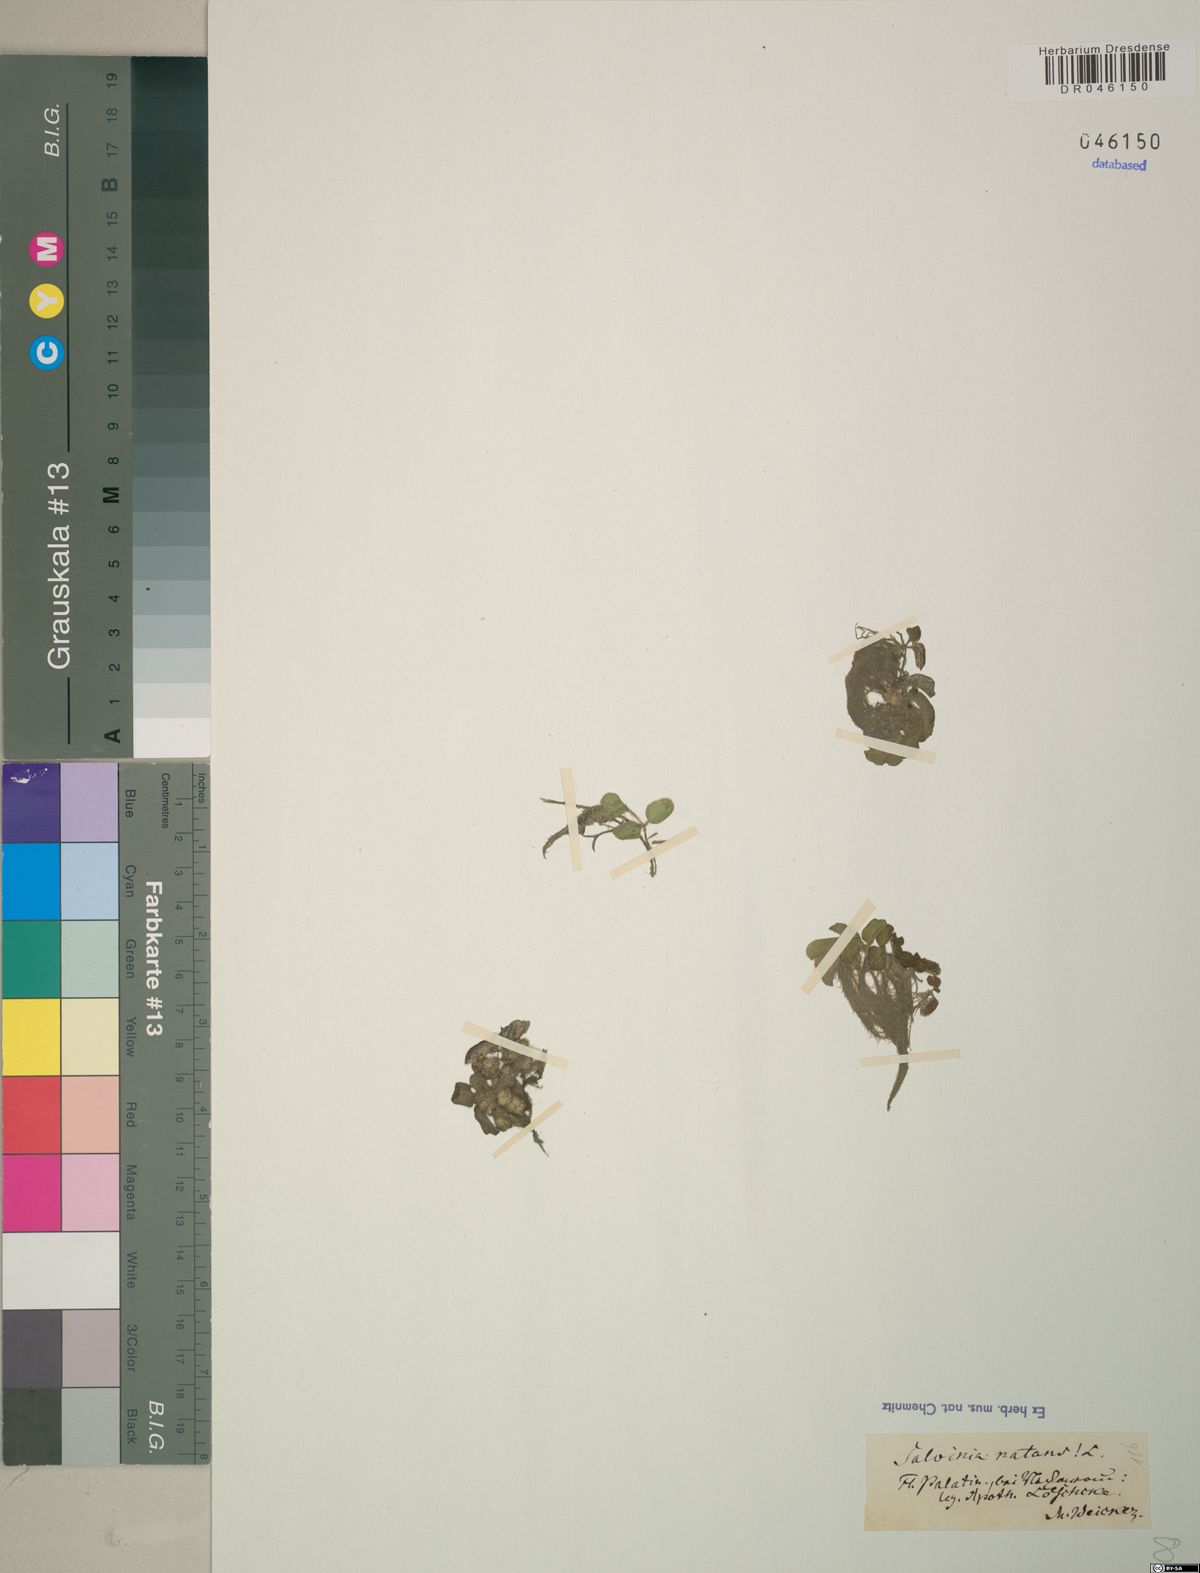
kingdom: Plantae
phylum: Tracheophyta
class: Polypodiopsida
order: Salviniales
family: Salviniaceae
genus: Salvinia
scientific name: Salvinia natans
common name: Floating fern
